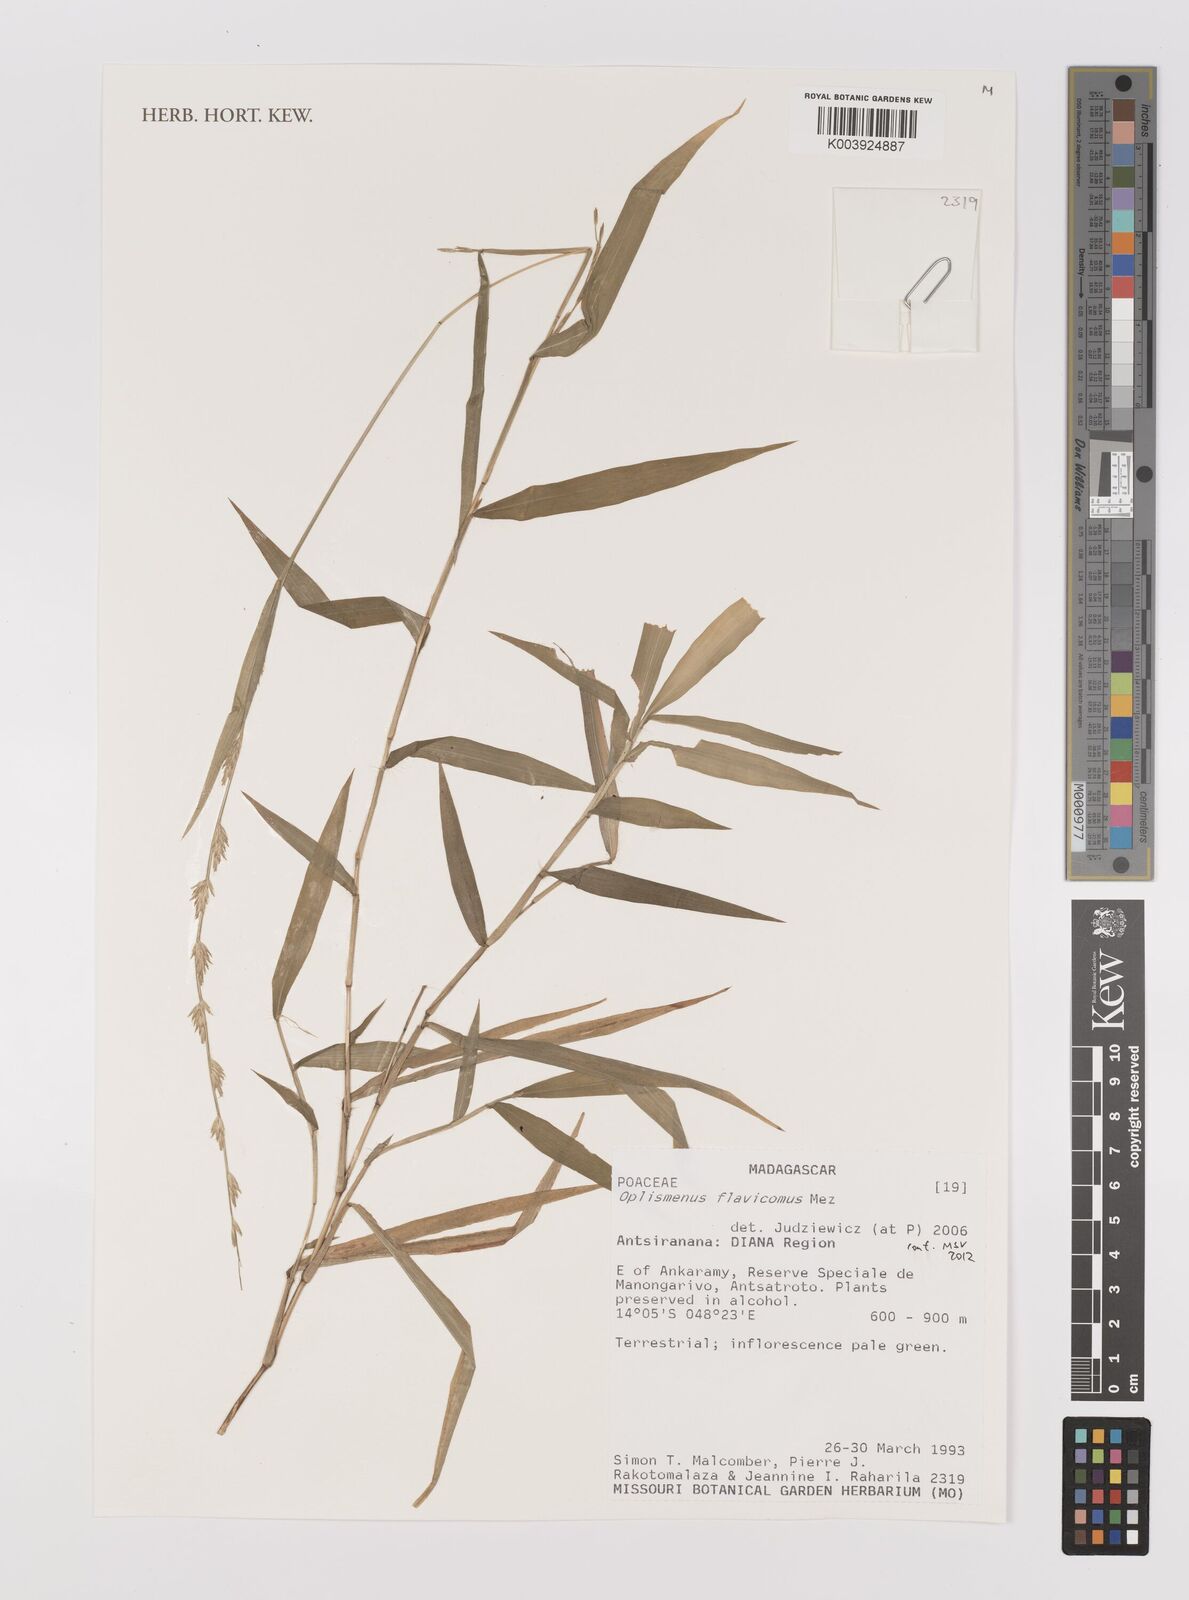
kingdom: Plantae
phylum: Tracheophyta
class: Liliopsida
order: Poales
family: Poaceae
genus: Oplismenus
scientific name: Oplismenus flavicomus
